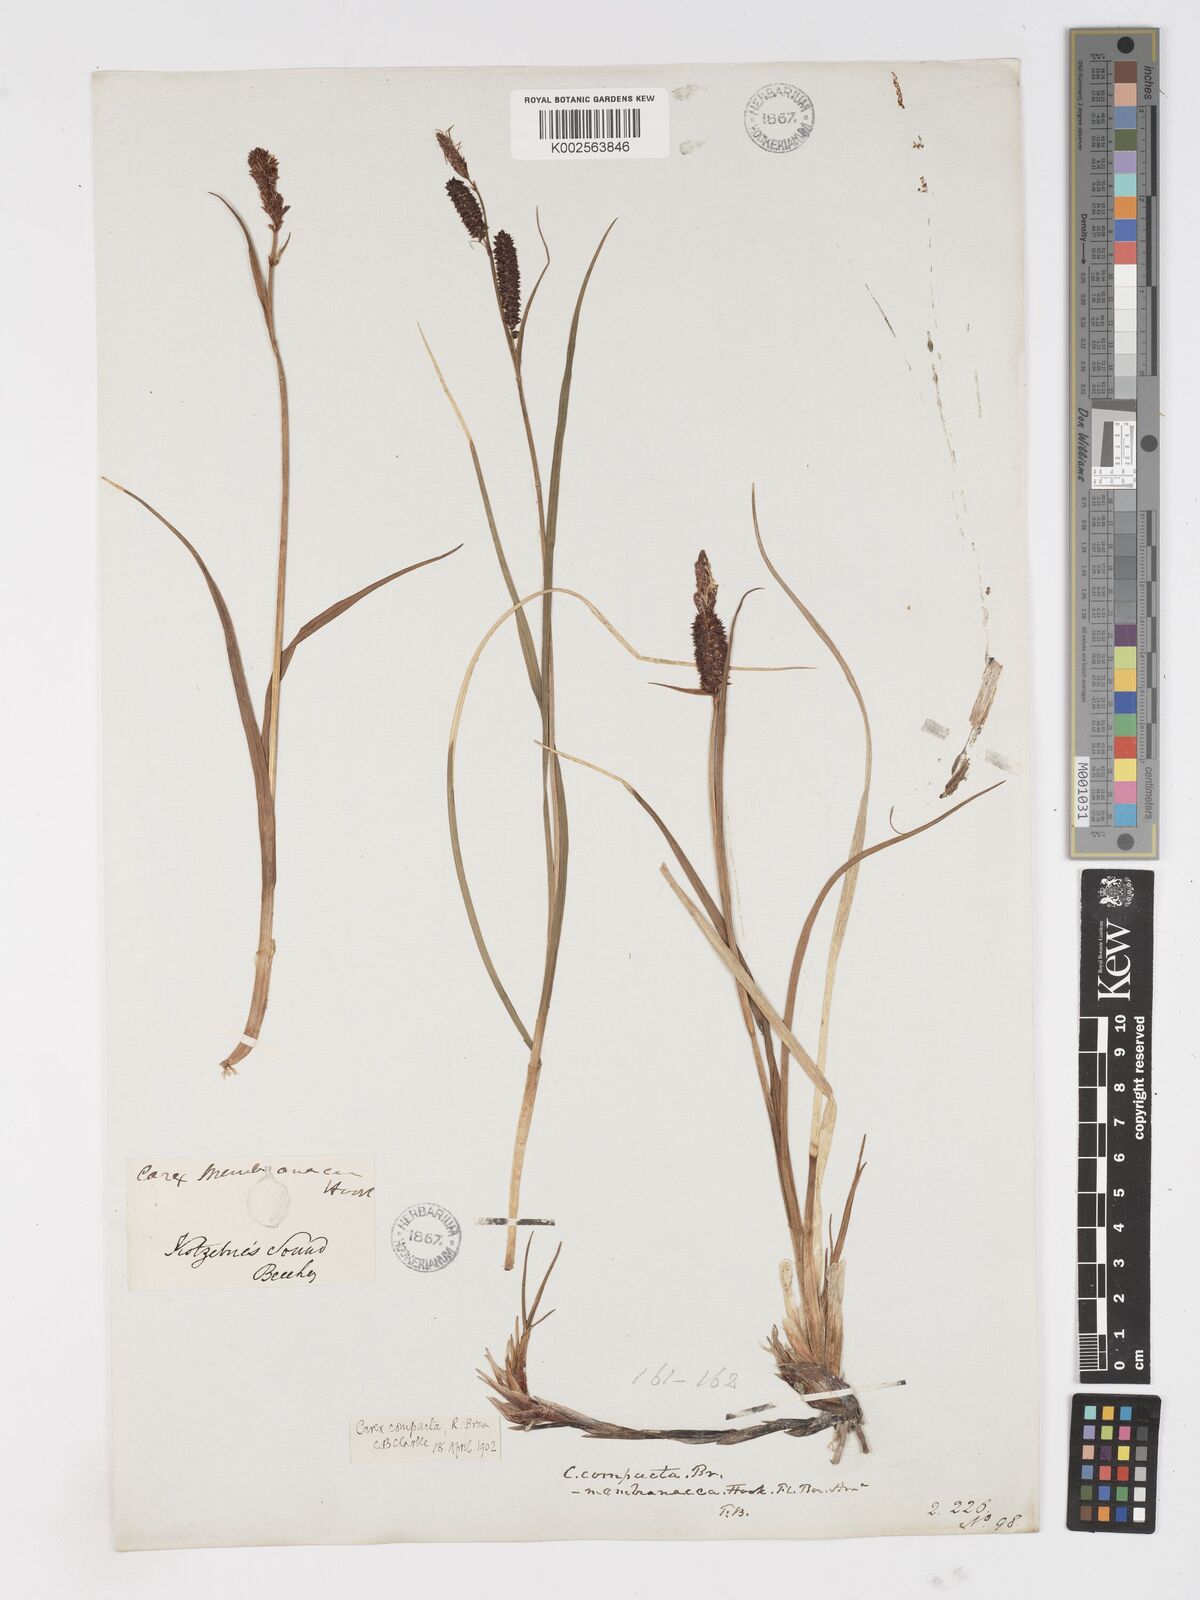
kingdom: Plantae
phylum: Tracheophyta
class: Liliopsida
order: Poales
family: Cyperaceae
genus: Carex
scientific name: Carex membranacea
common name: Fragile sedge
